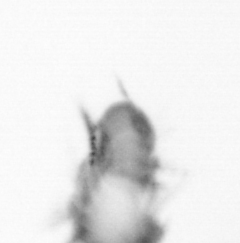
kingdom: Animalia
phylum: Arthropoda
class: Copepoda
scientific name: Copepoda
